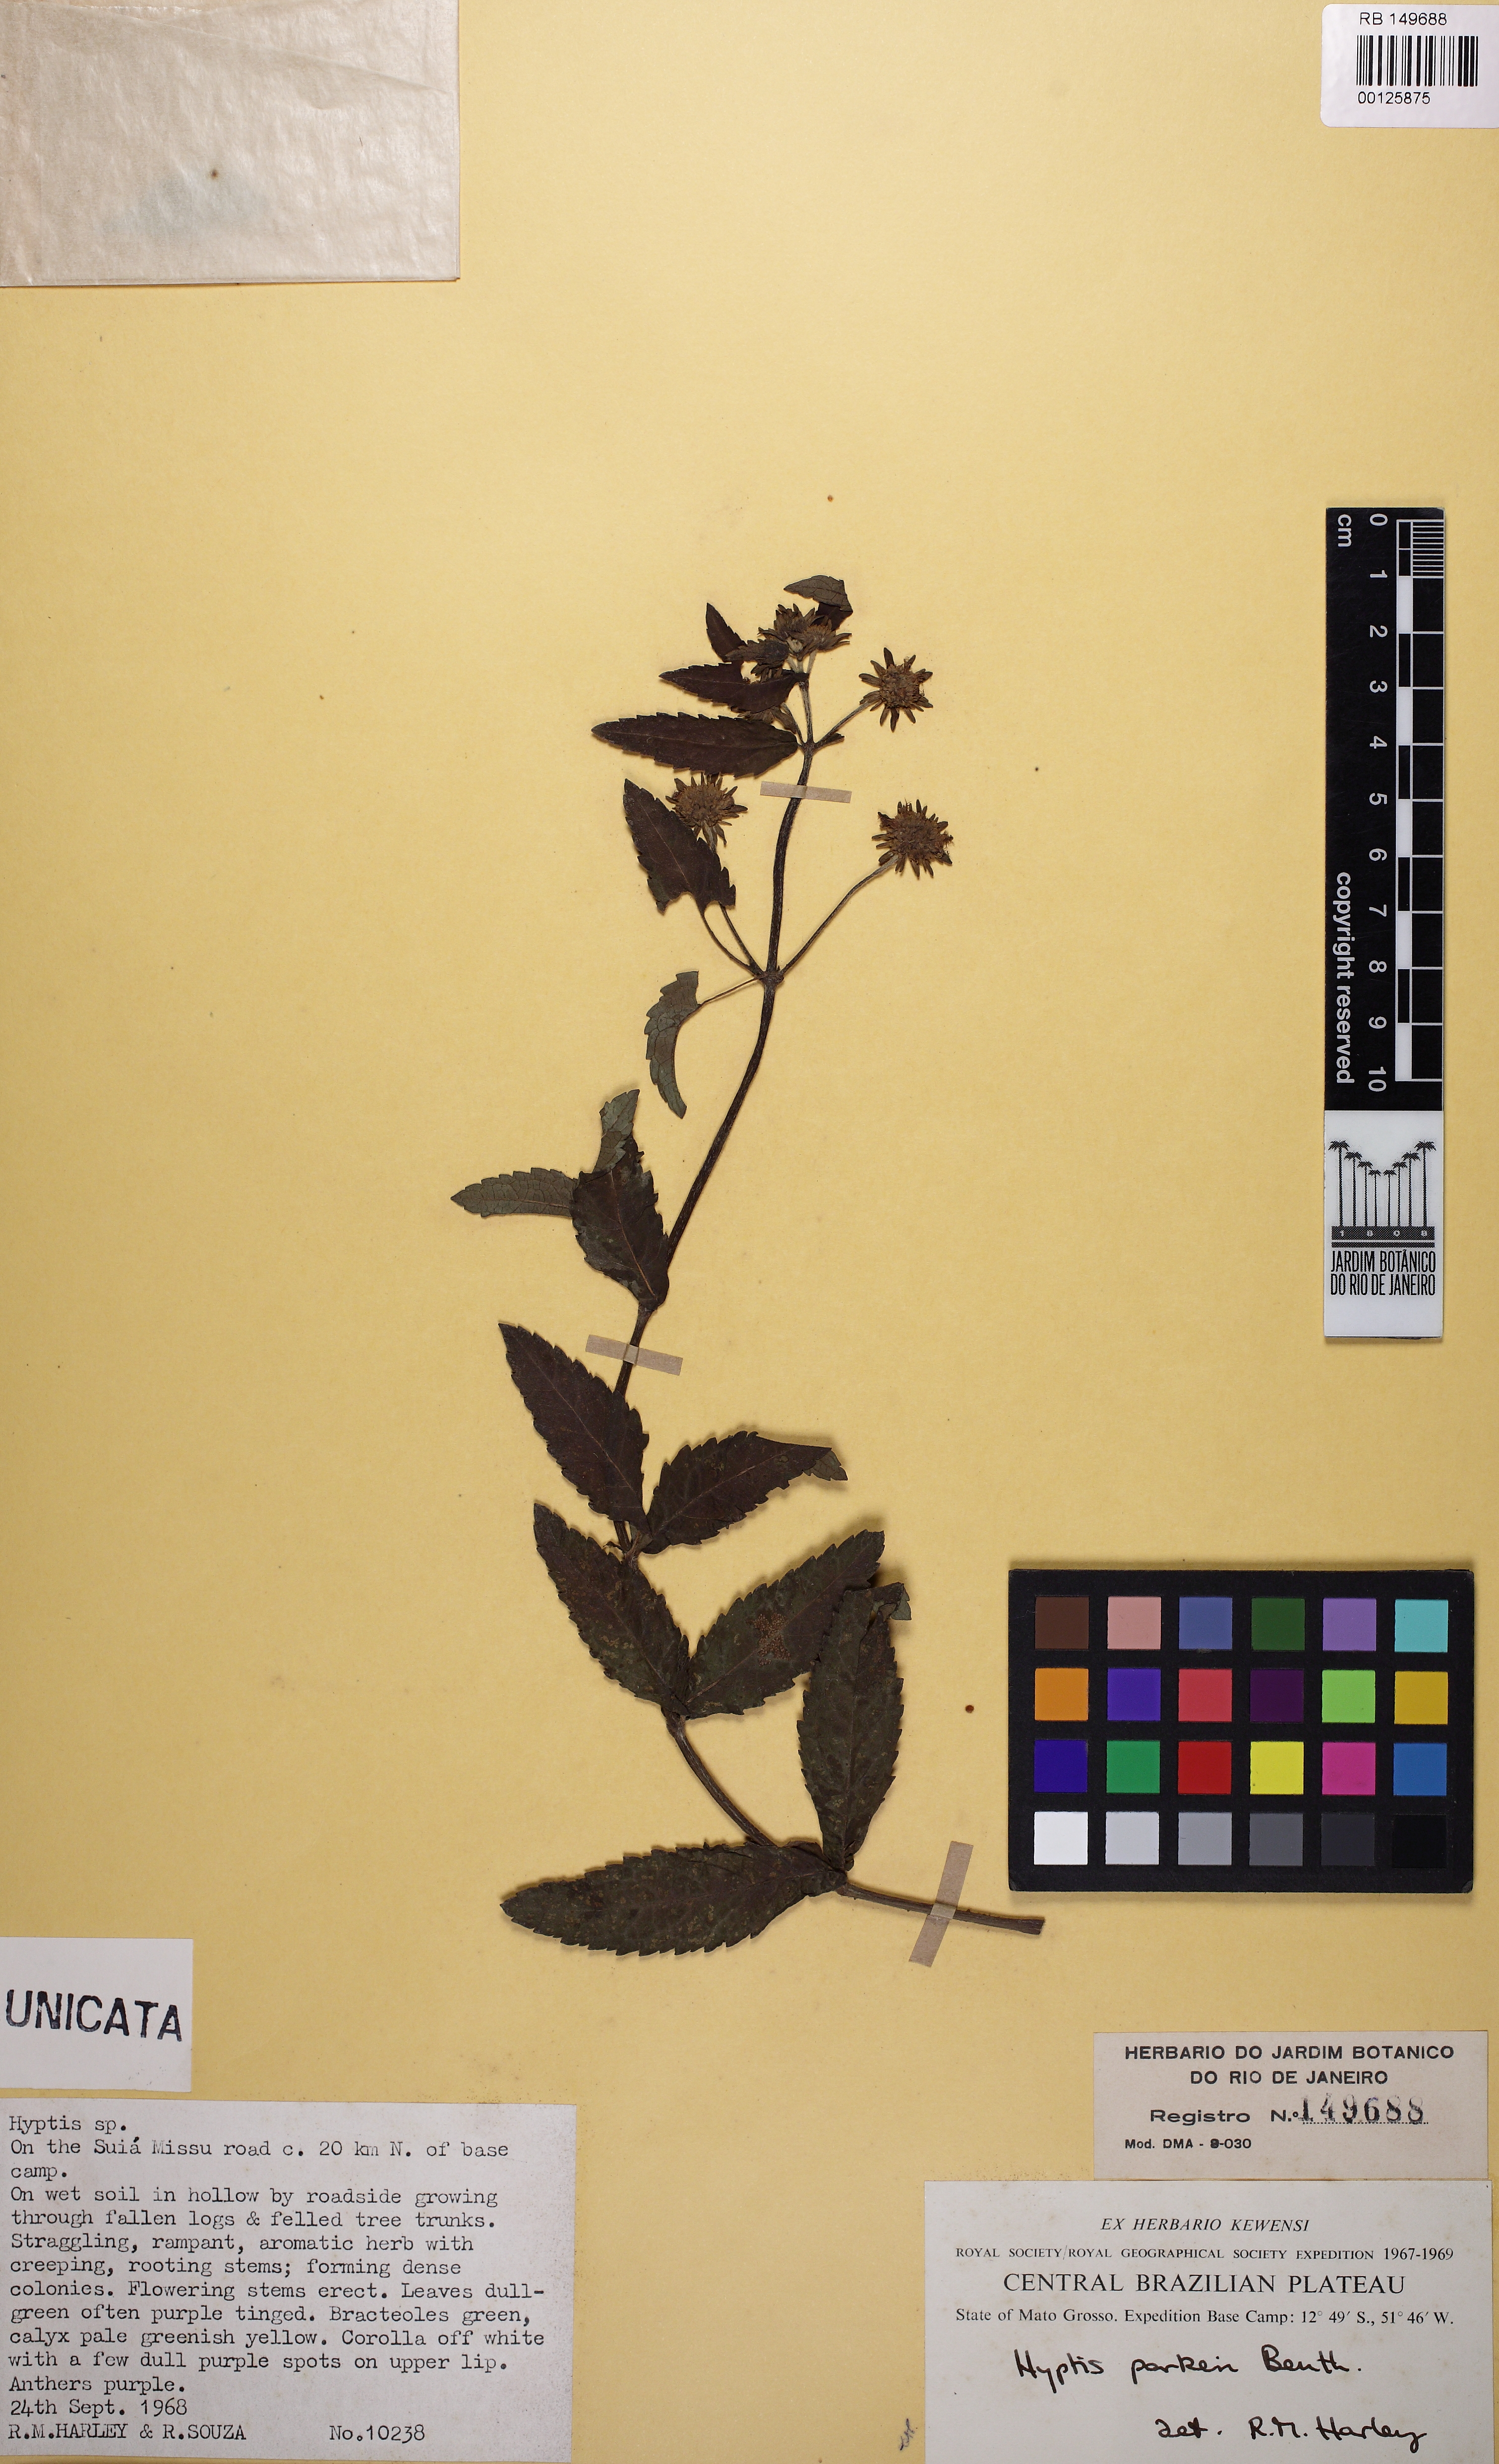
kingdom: Plantae
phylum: Tracheophyta
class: Magnoliopsida
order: Lamiales
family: Lamiaceae
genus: Hyptis
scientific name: Hyptis parkeri
